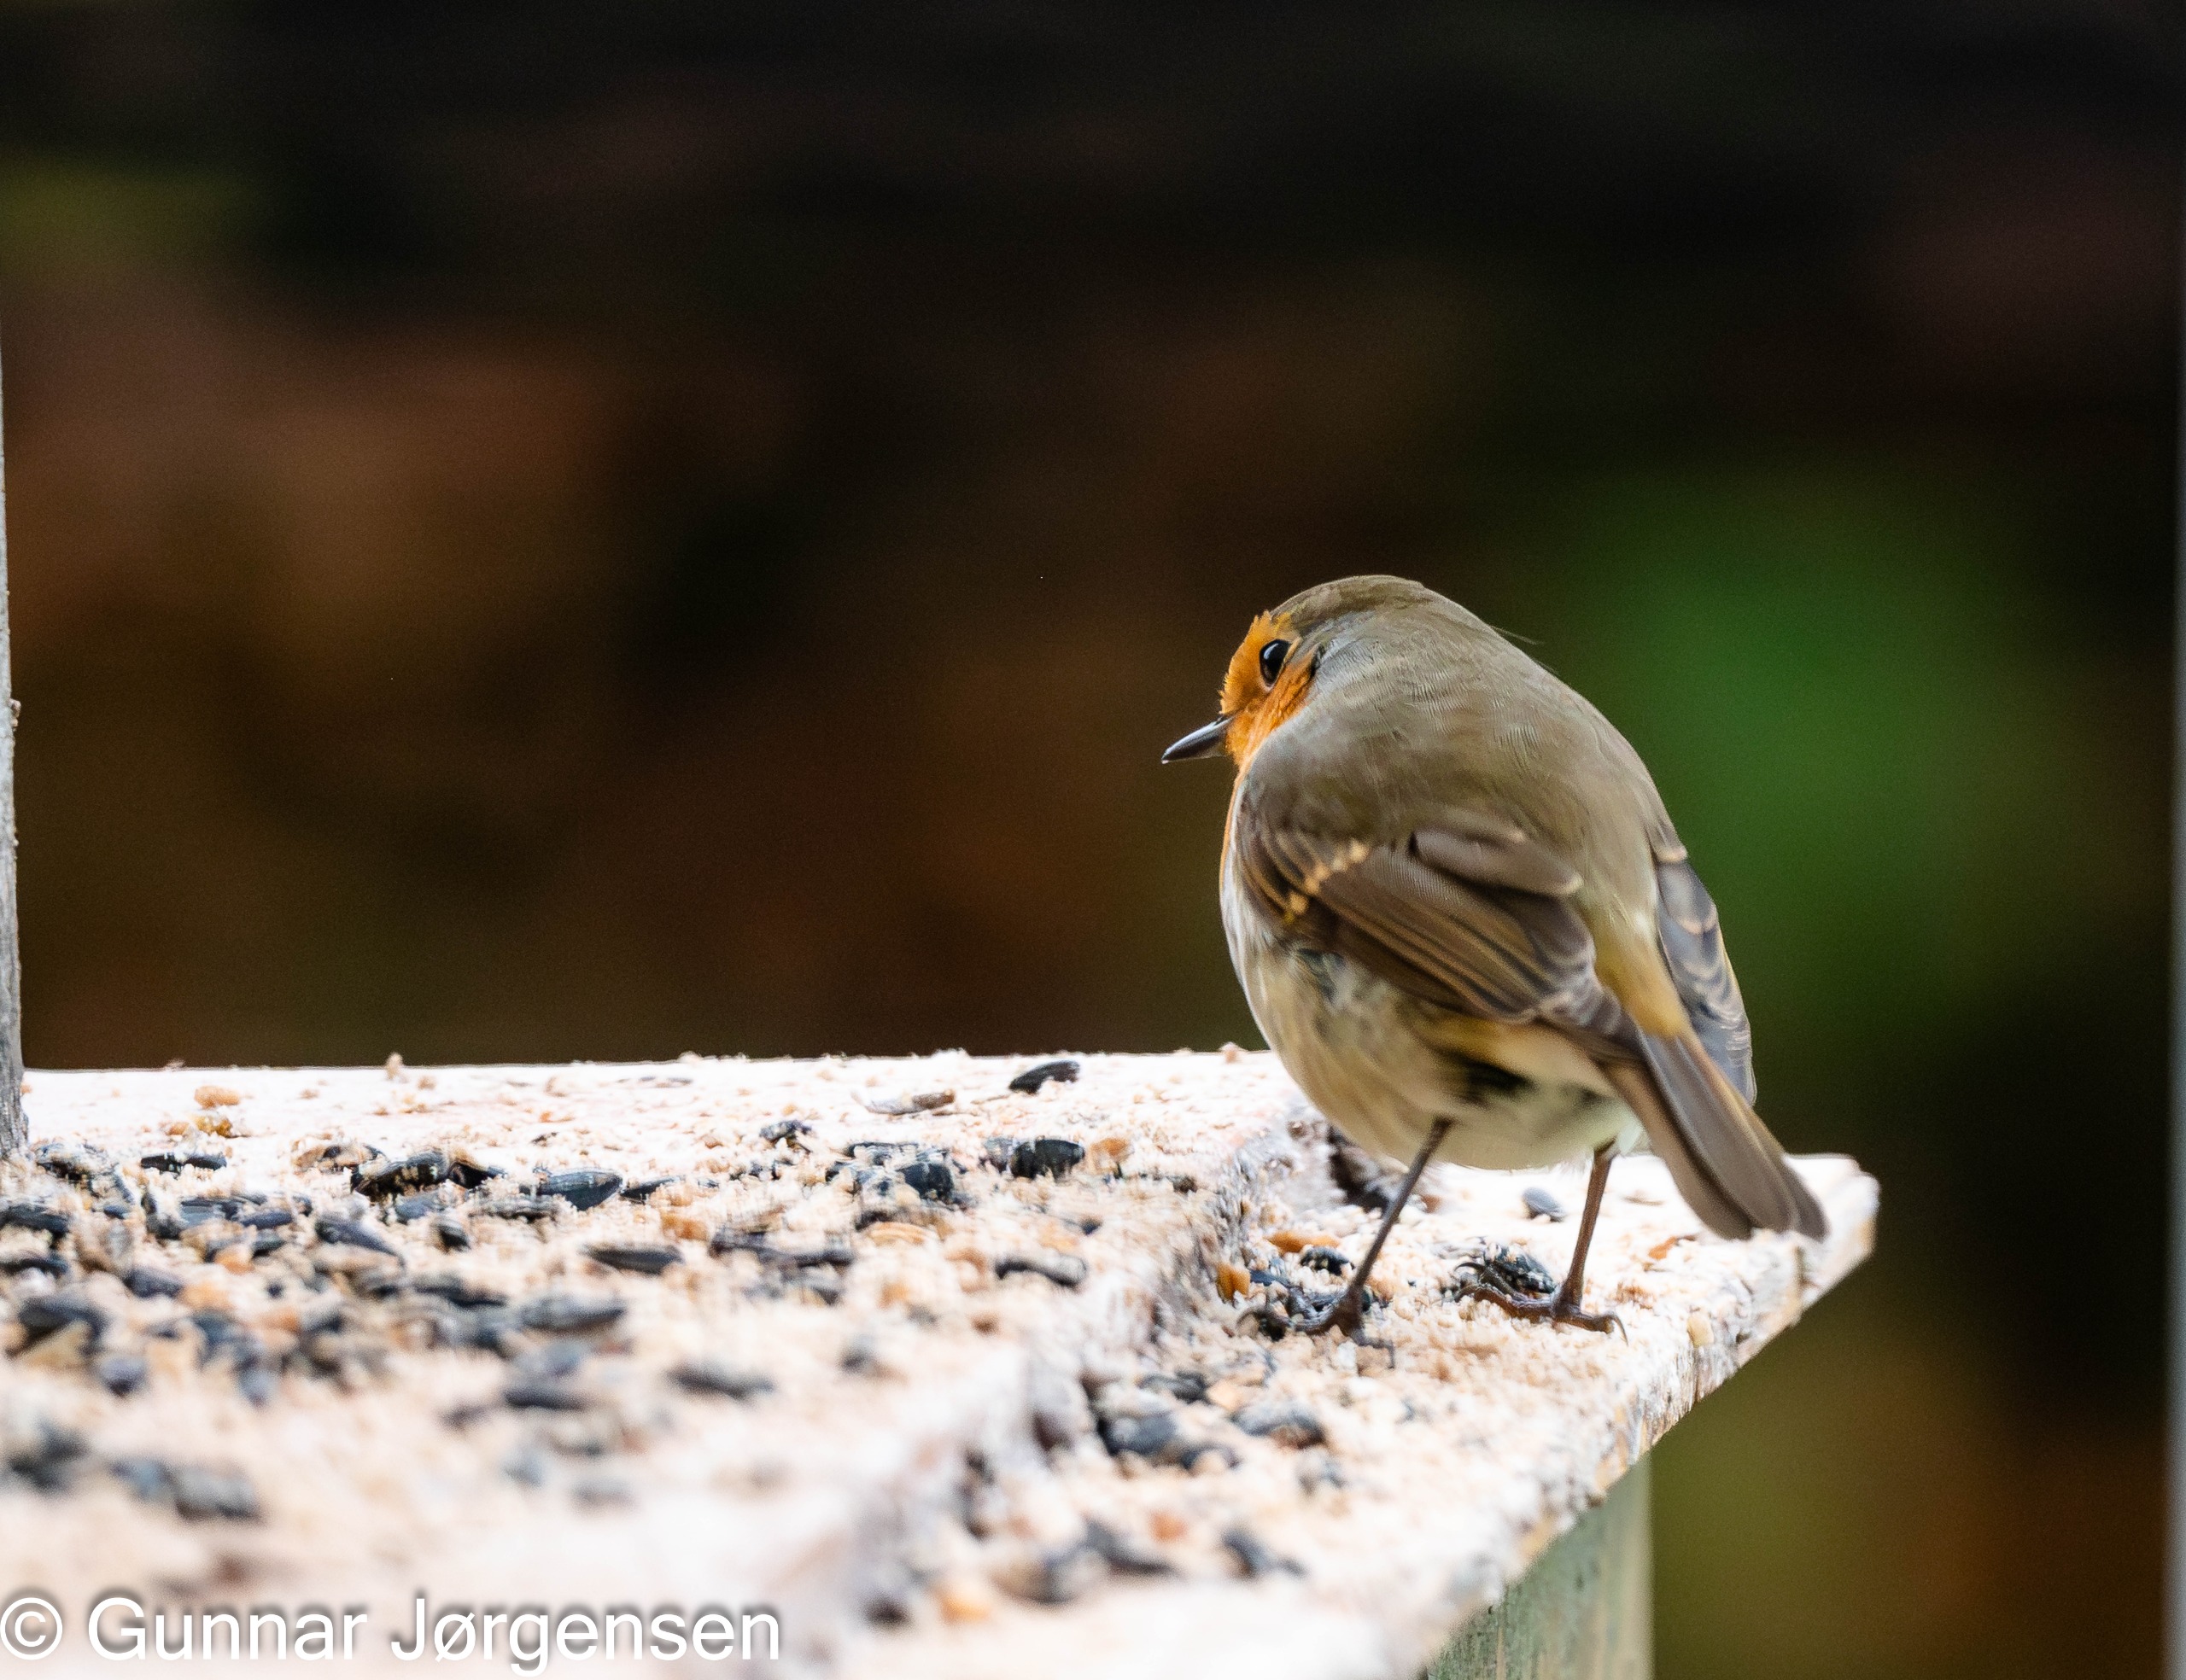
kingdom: Animalia
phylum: Chordata
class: Aves
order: Passeriformes
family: Muscicapidae
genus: Erithacus
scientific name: Erithacus rubecula
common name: Rødhals/rødkælk
